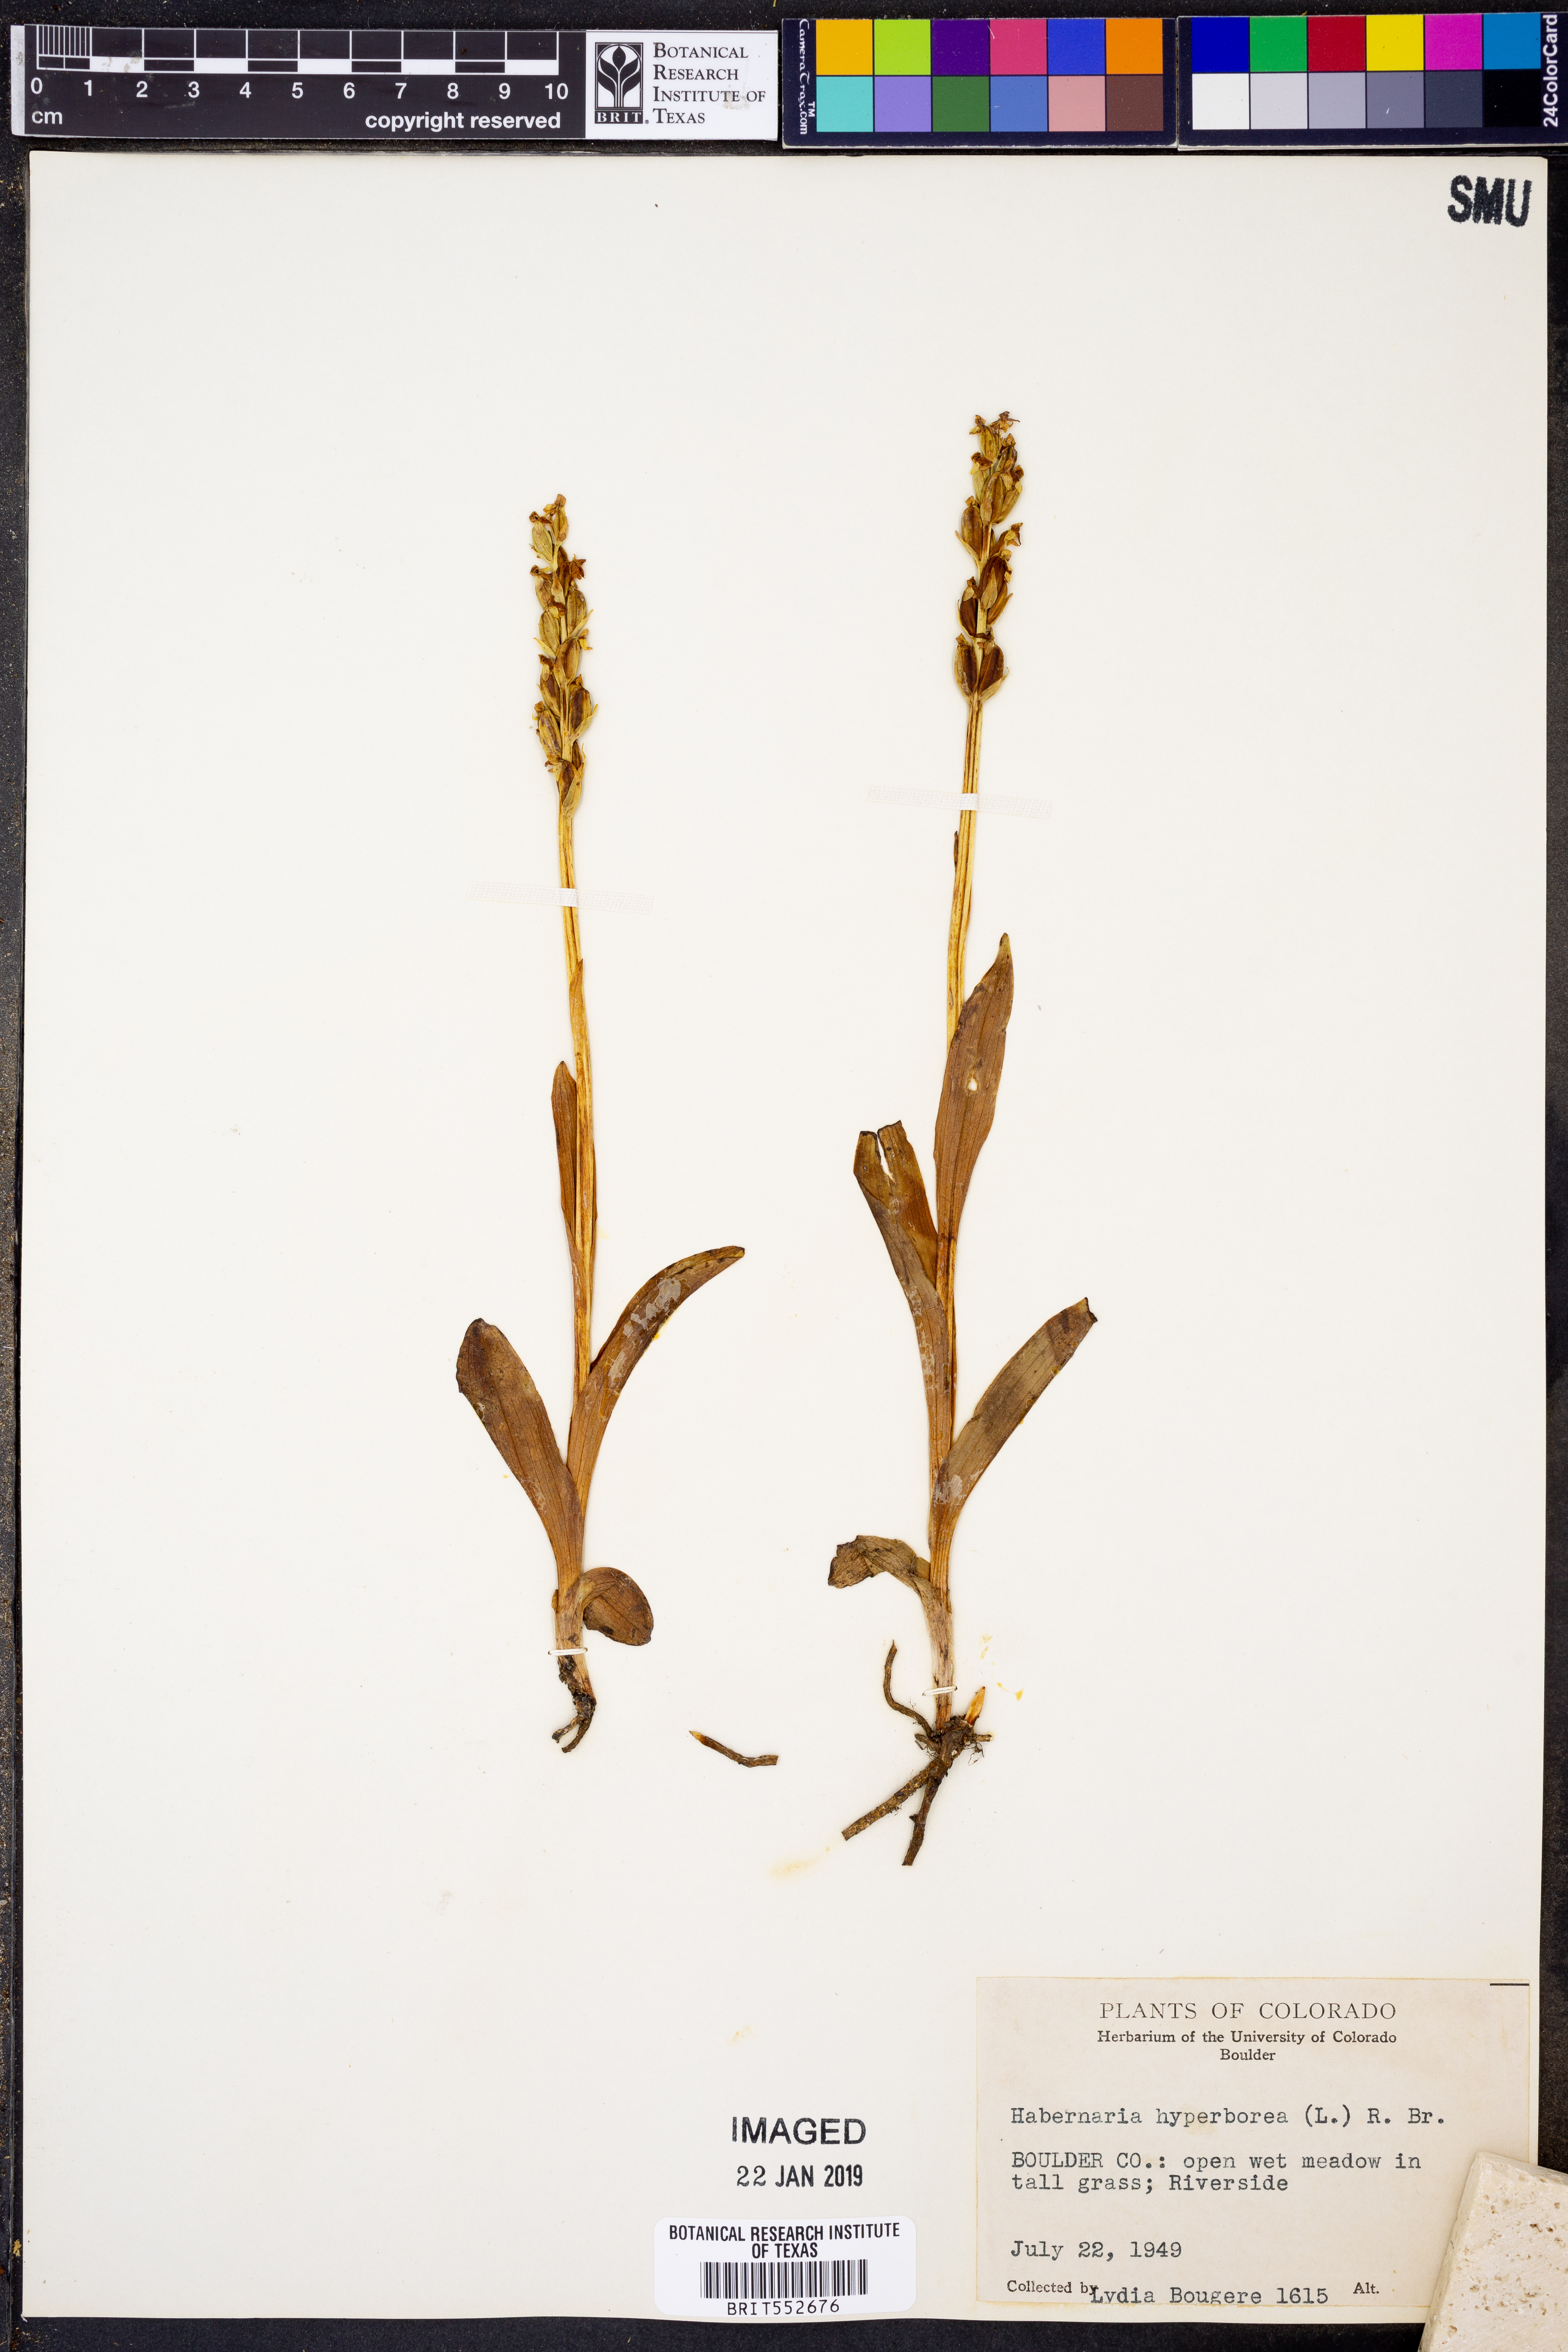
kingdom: Plantae
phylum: Tracheophyta
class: Liliopsida
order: Asparagales
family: Orchidaceae
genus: Platanthera
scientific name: Platanthera hyperborea
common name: Northern green orchid
